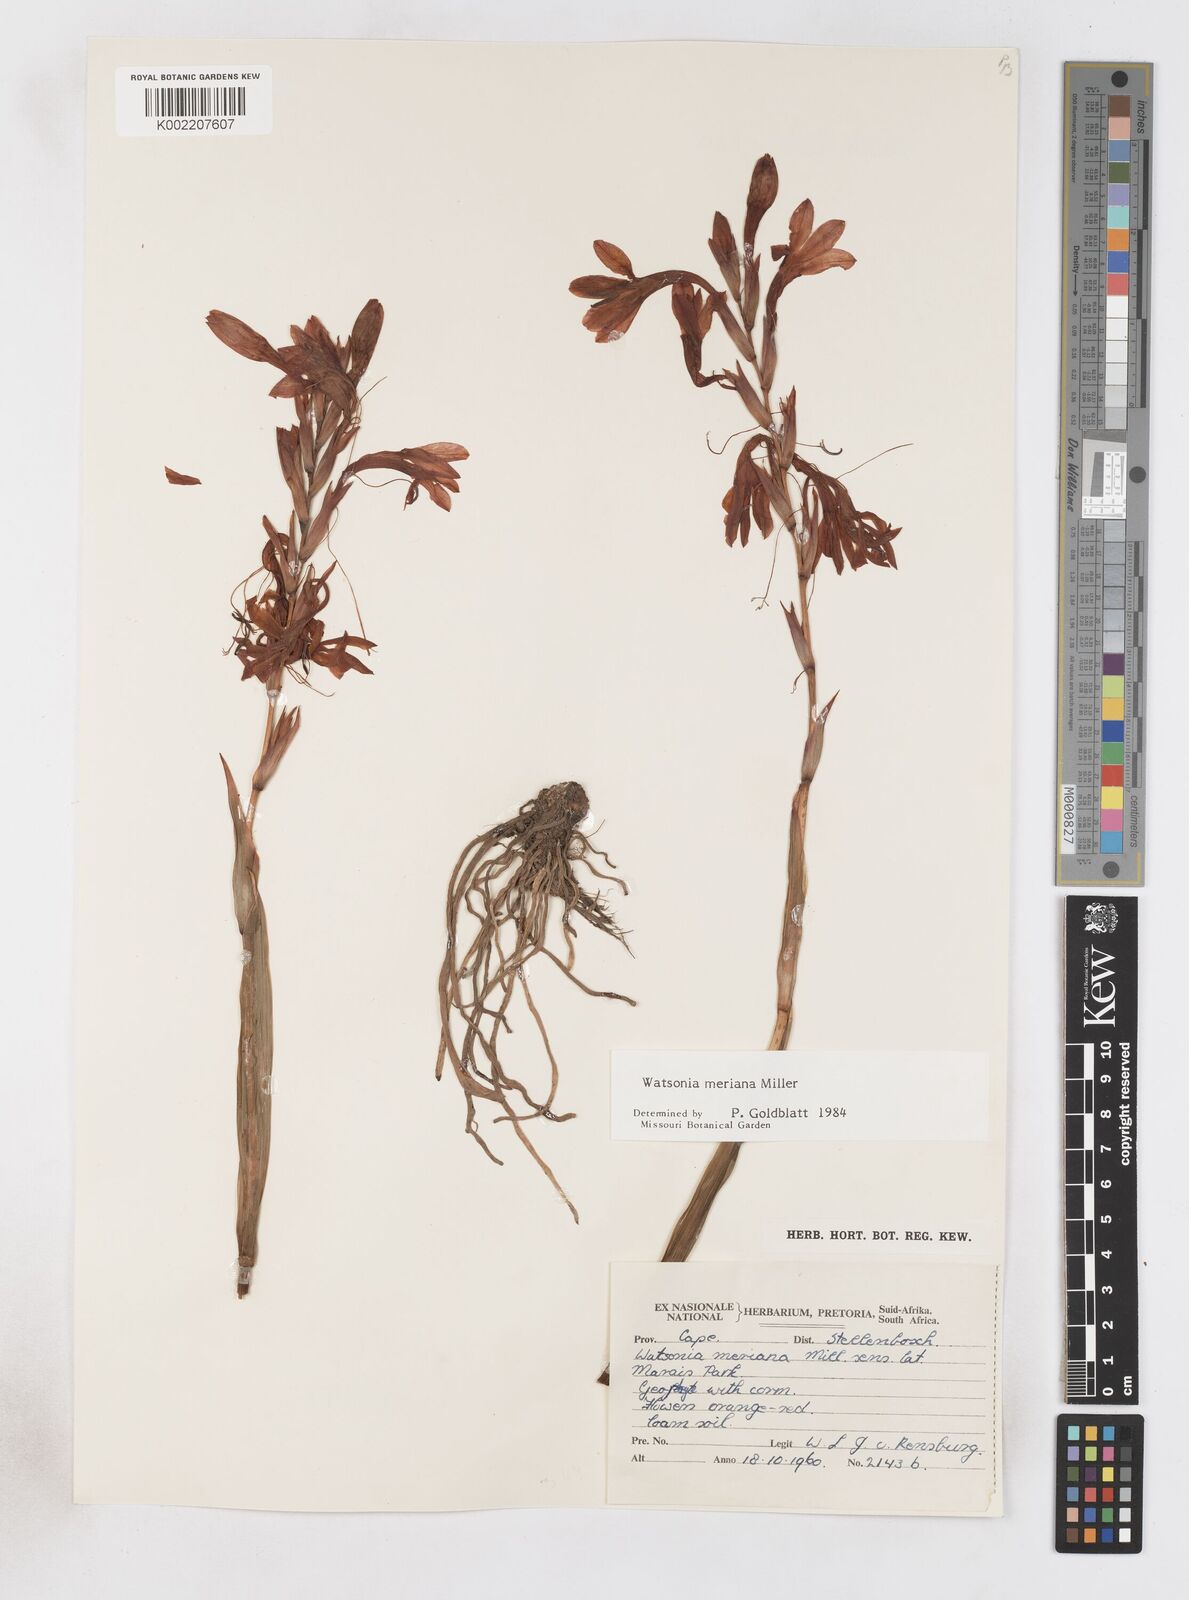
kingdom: Plantae
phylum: Tracheophyta
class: Liliopsida
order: Asparagales
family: Iridaceae
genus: Watsonia
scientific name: Watsonia meriana
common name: Bulbil bugle-lily
